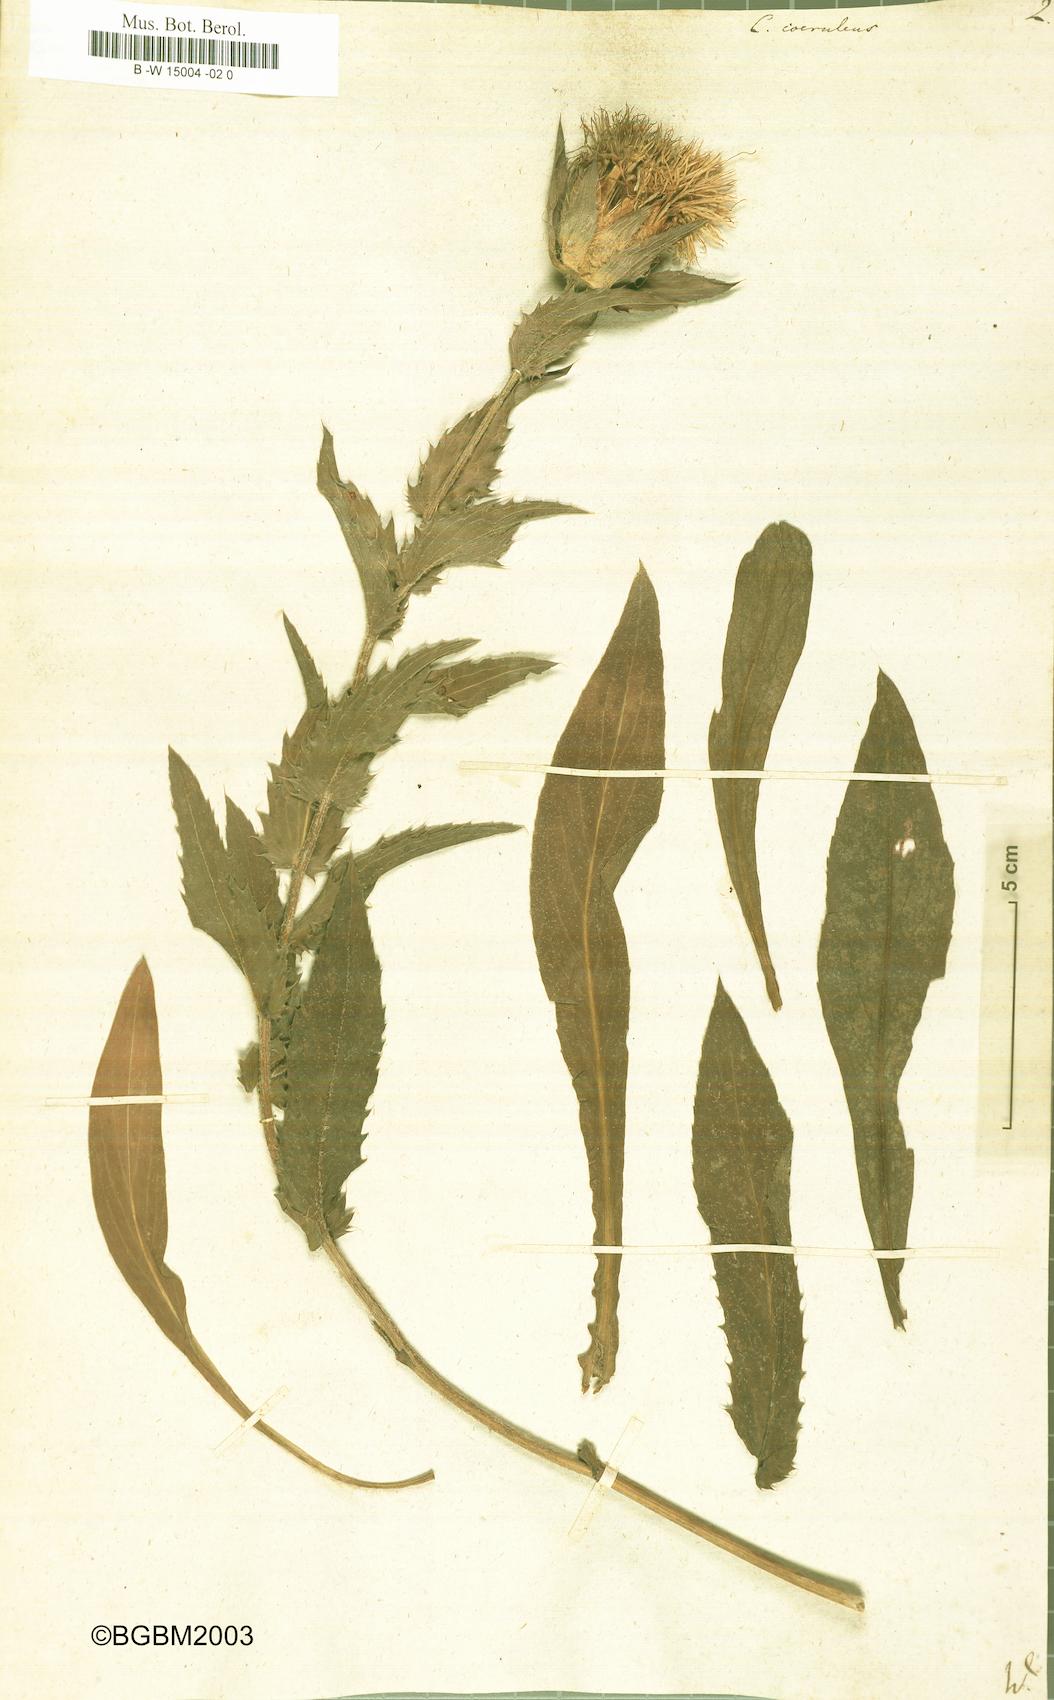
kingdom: Plantae
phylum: Tracheophyta
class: Magnoliopsida
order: Asterales
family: Asteraceae
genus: Carduncellus
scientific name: Carduncellus caeruleus
